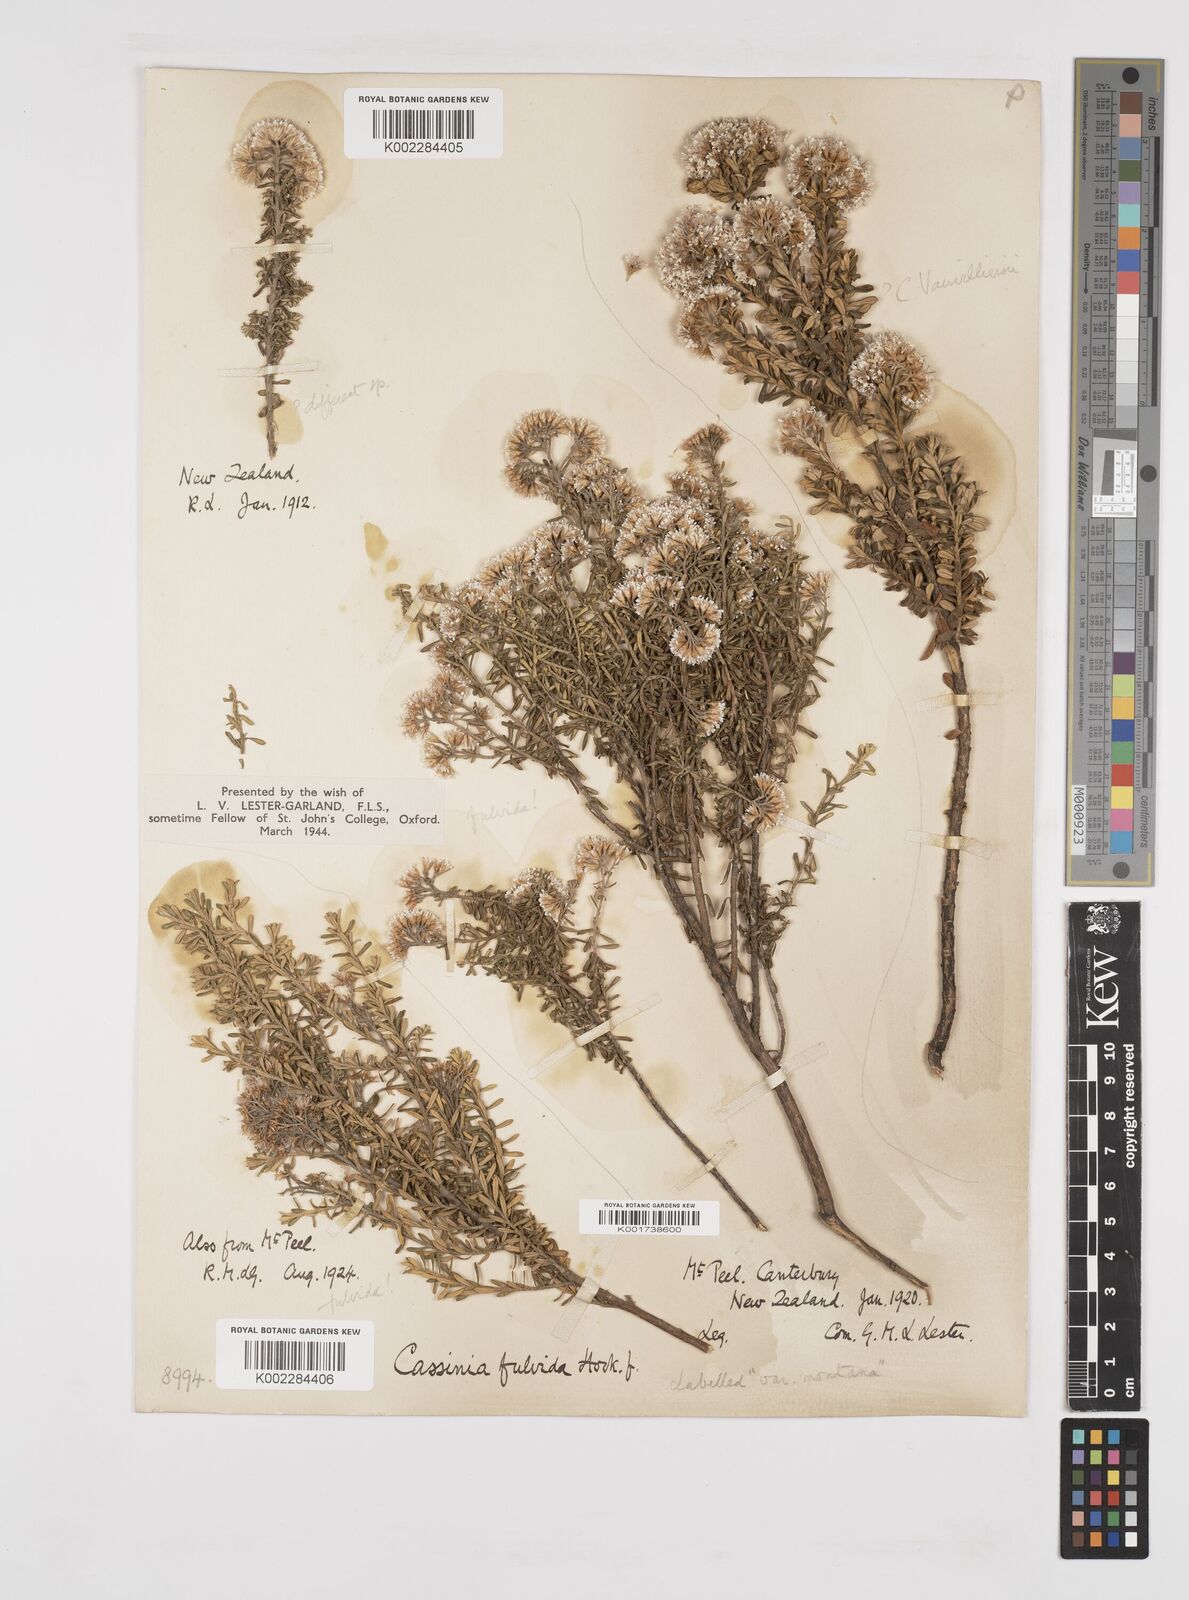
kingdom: Plantae
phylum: Tracheophyta
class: Magnoliopsida
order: Asterales
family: Asteraceae
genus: Ozothamnus
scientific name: Ozothamnus leptophyllus
